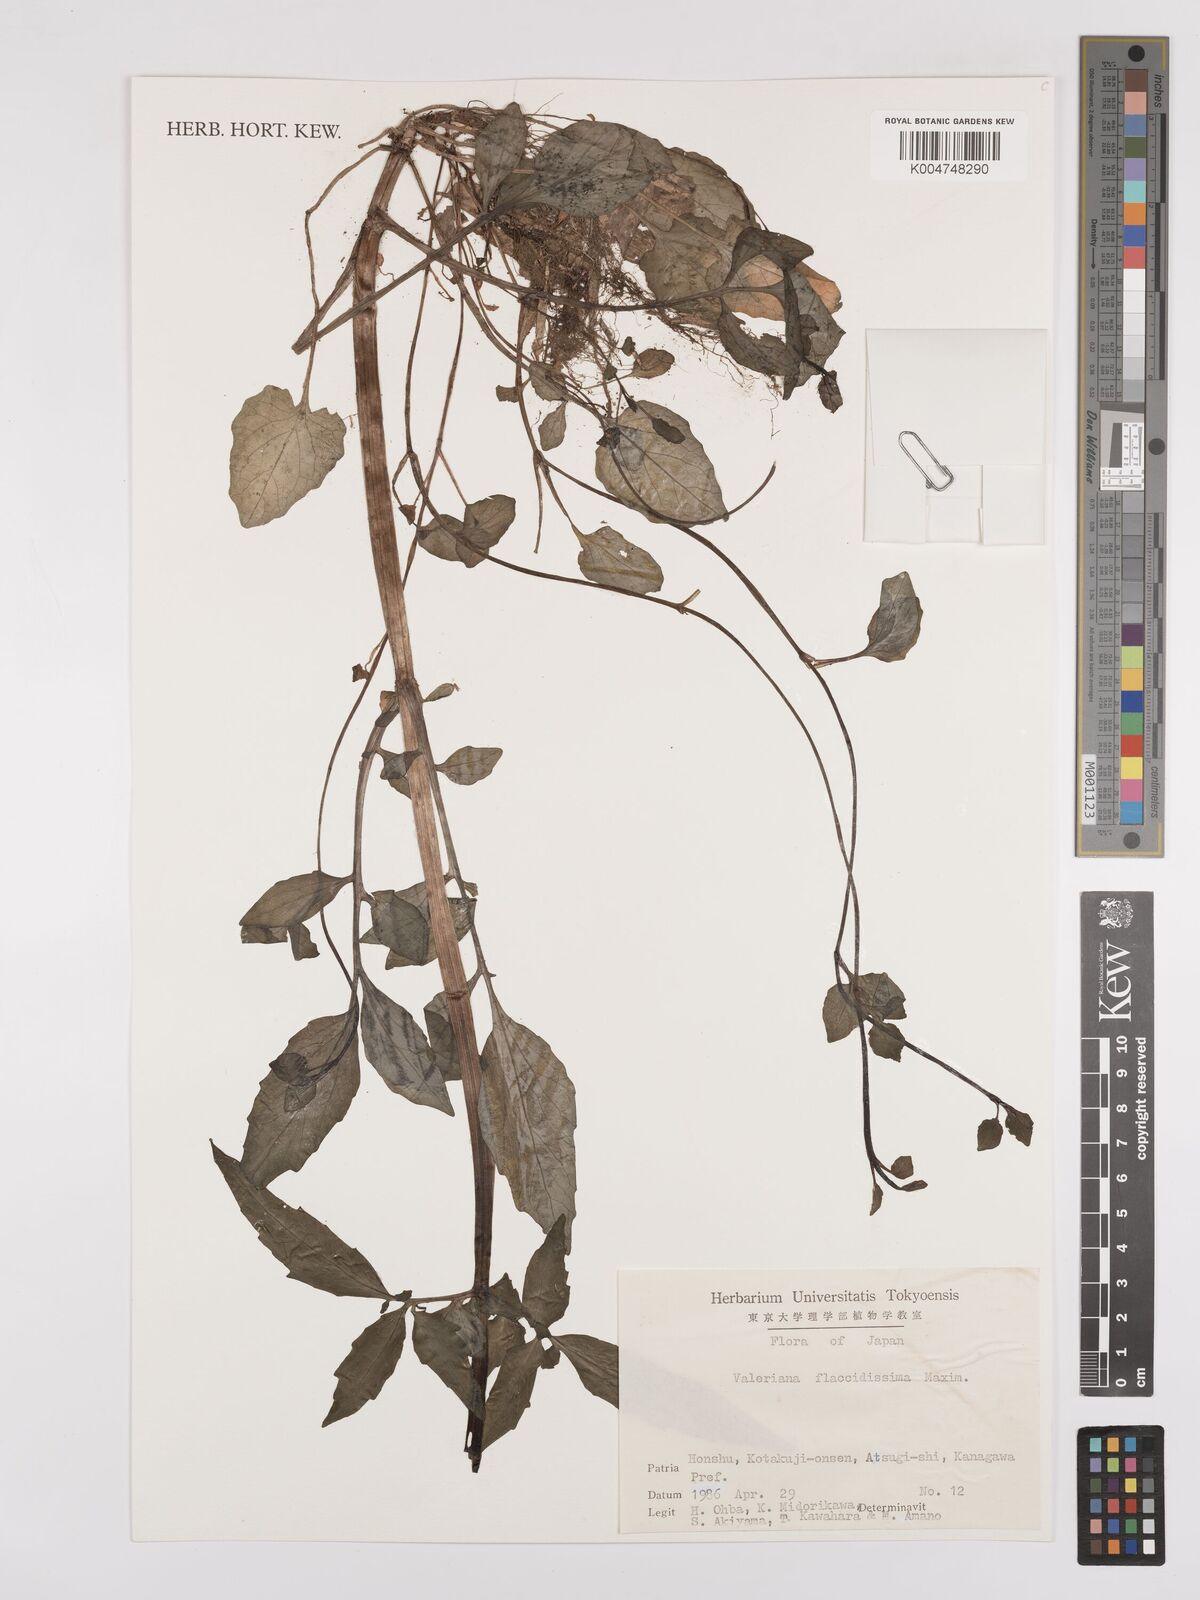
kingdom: Plantae
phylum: Tracheophyta
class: Magnoliopsida
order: Dipsacales
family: Caprifoliaceae
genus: Valeriana
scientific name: Valeriana flaccidissima
